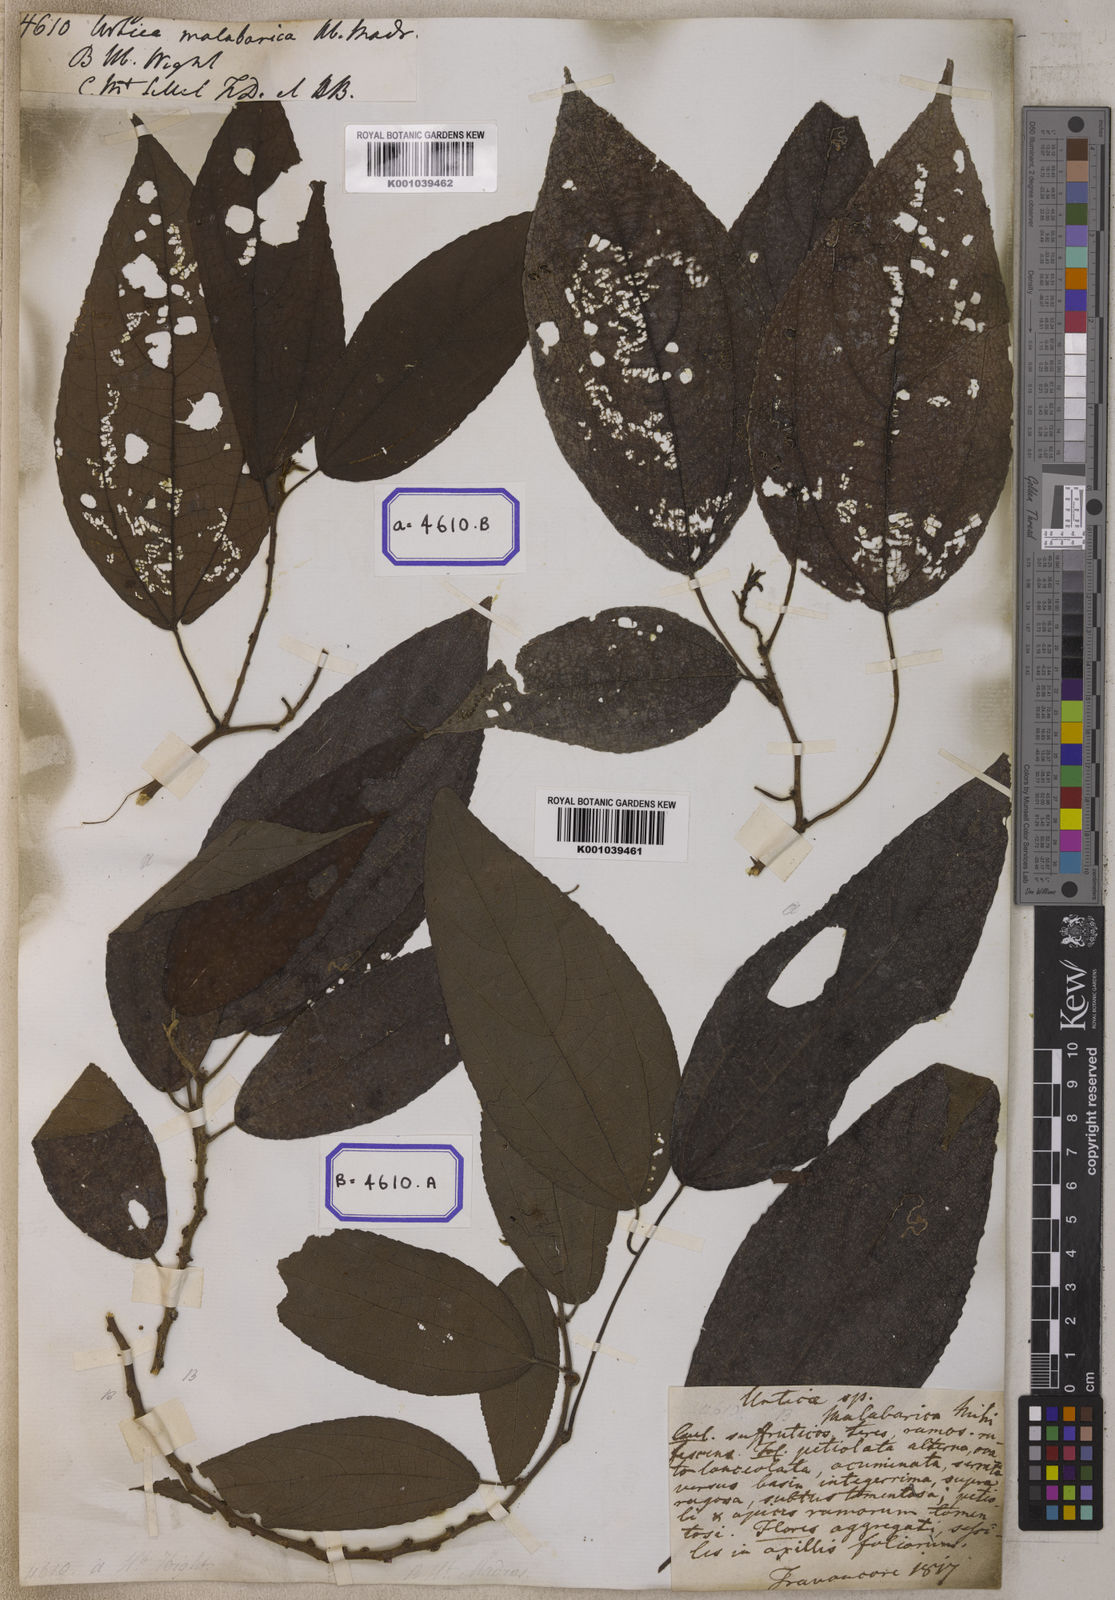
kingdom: Plantae
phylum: Tracheophyta
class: Magnoliopsida
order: Rosales
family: Urticaceae
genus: Boehmeria
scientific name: Boehmeria depauperata
